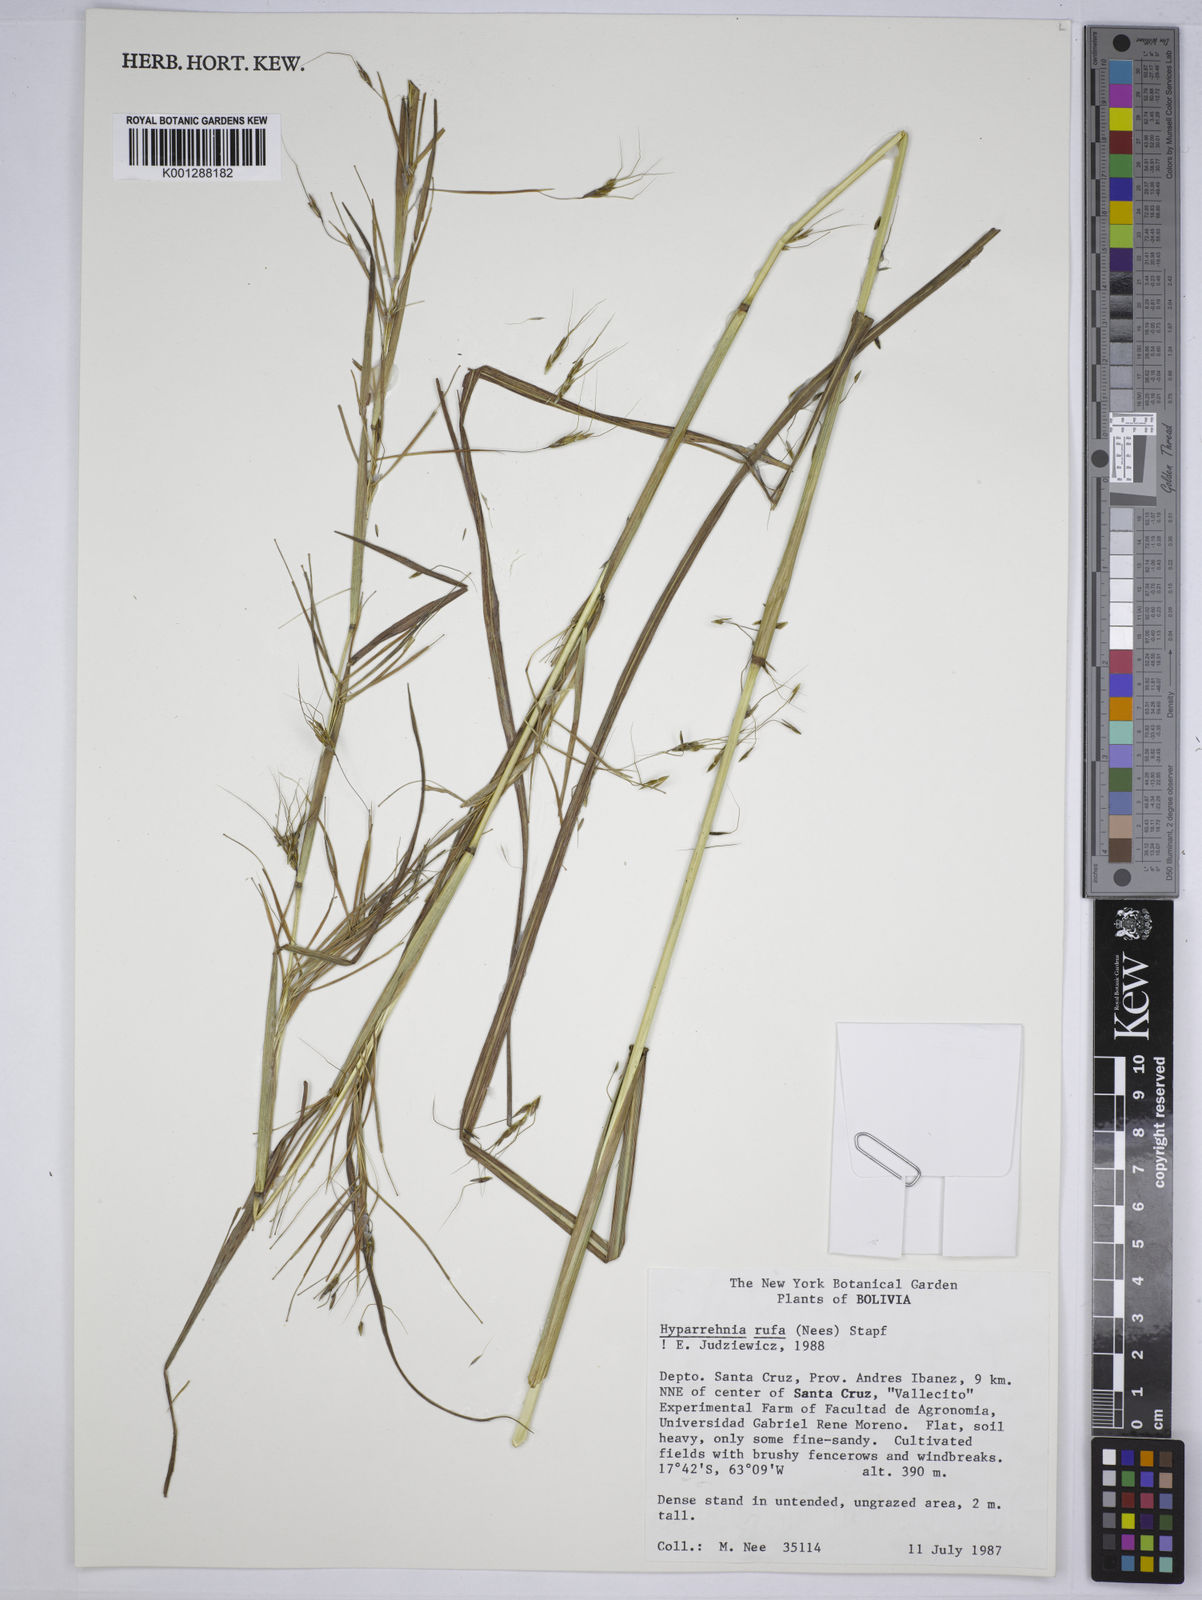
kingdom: Plantae
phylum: Tracheophyta
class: Liliopsida
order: Poales
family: Poaceae
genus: Hyparrhenia
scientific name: Hyparrhenia rufa
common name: Jaraguagrass
